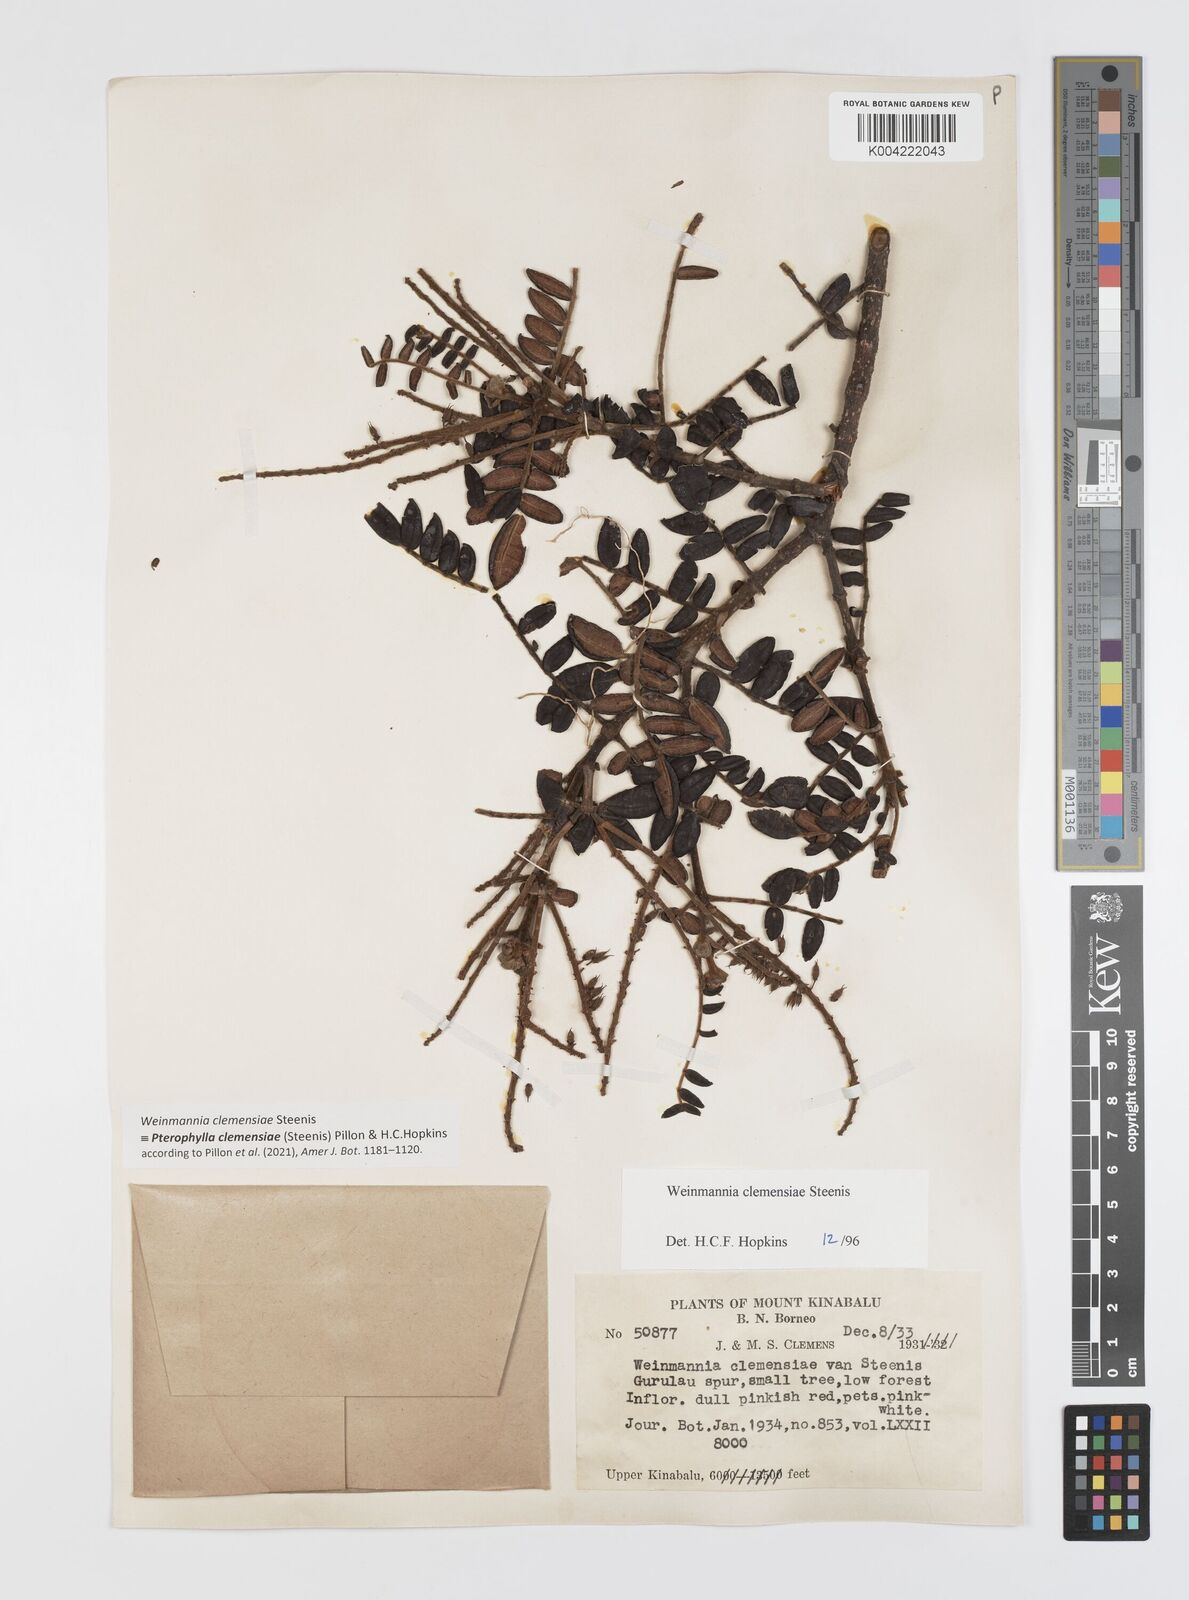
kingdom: Plantae
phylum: Tracheophyta
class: Magnoliopsida
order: Oxalidales
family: Cunoniaceae
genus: Pterophylla
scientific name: Pterophylla clemensiae
